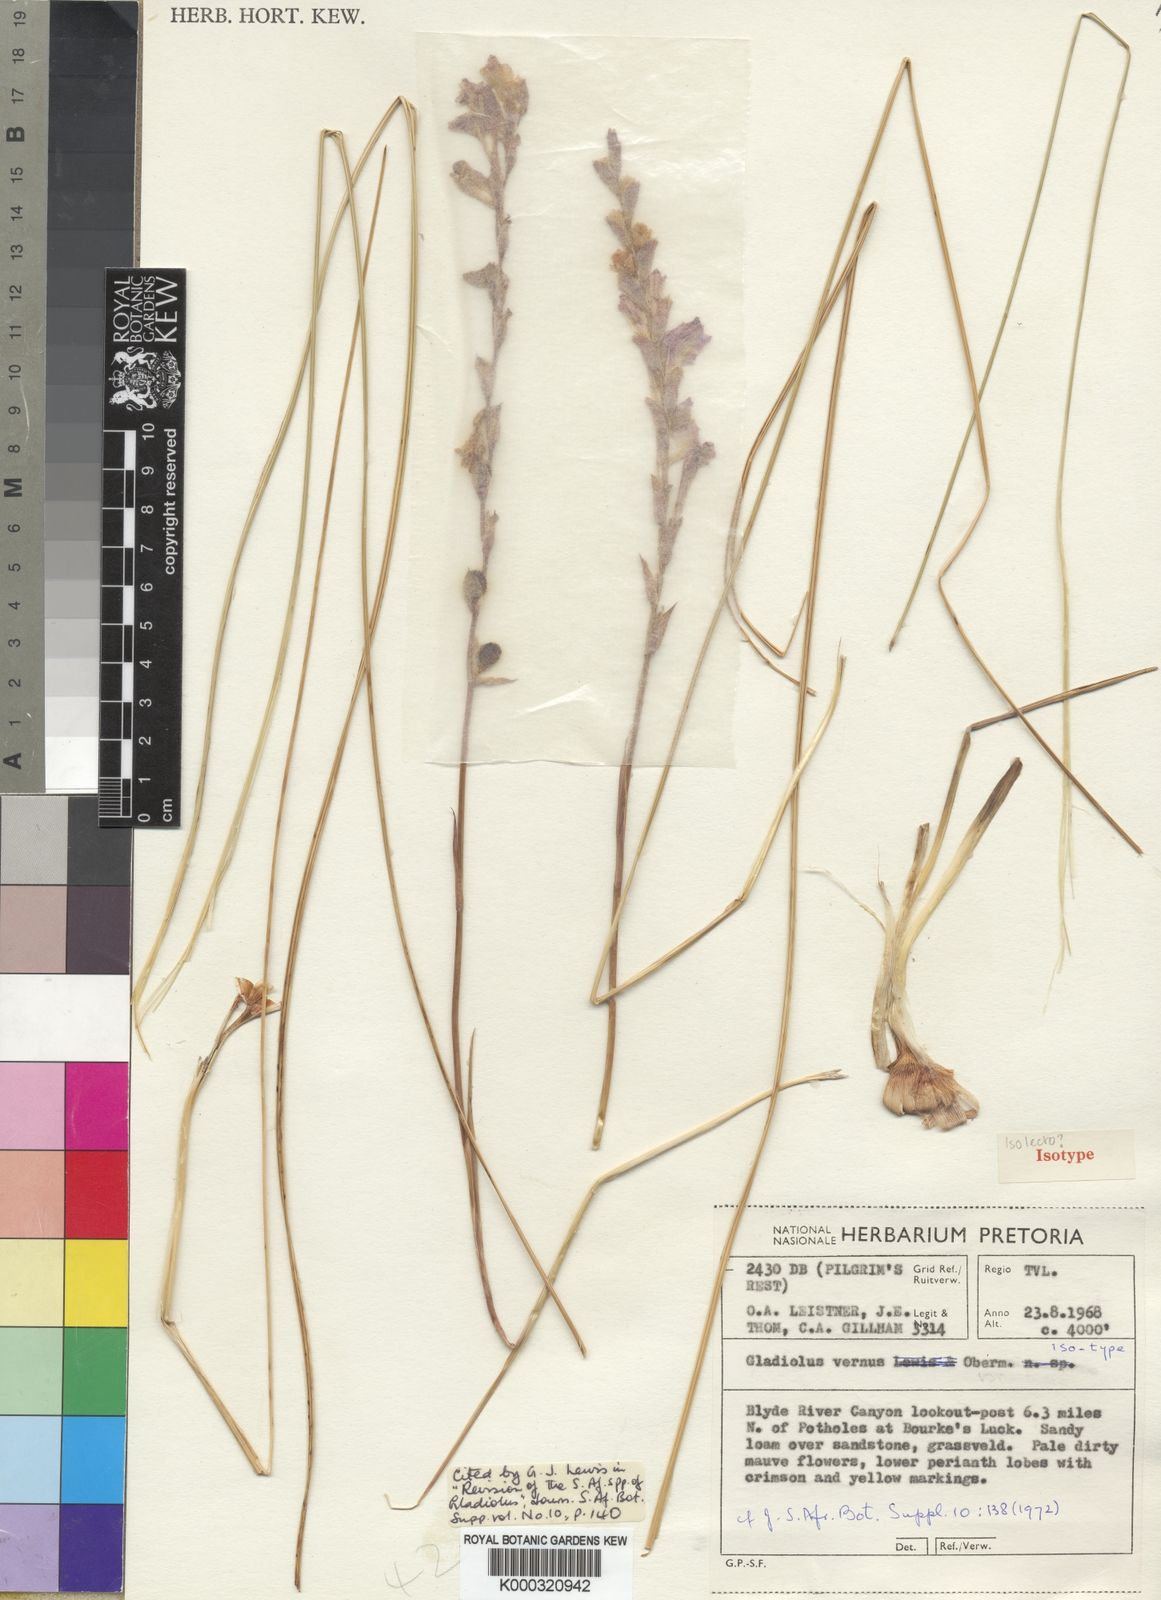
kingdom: Plantae
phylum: Tracheophyta
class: Liliopsida
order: Asparagales
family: Iridaceae
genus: Gladiolus
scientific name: Gladiolus vernus
